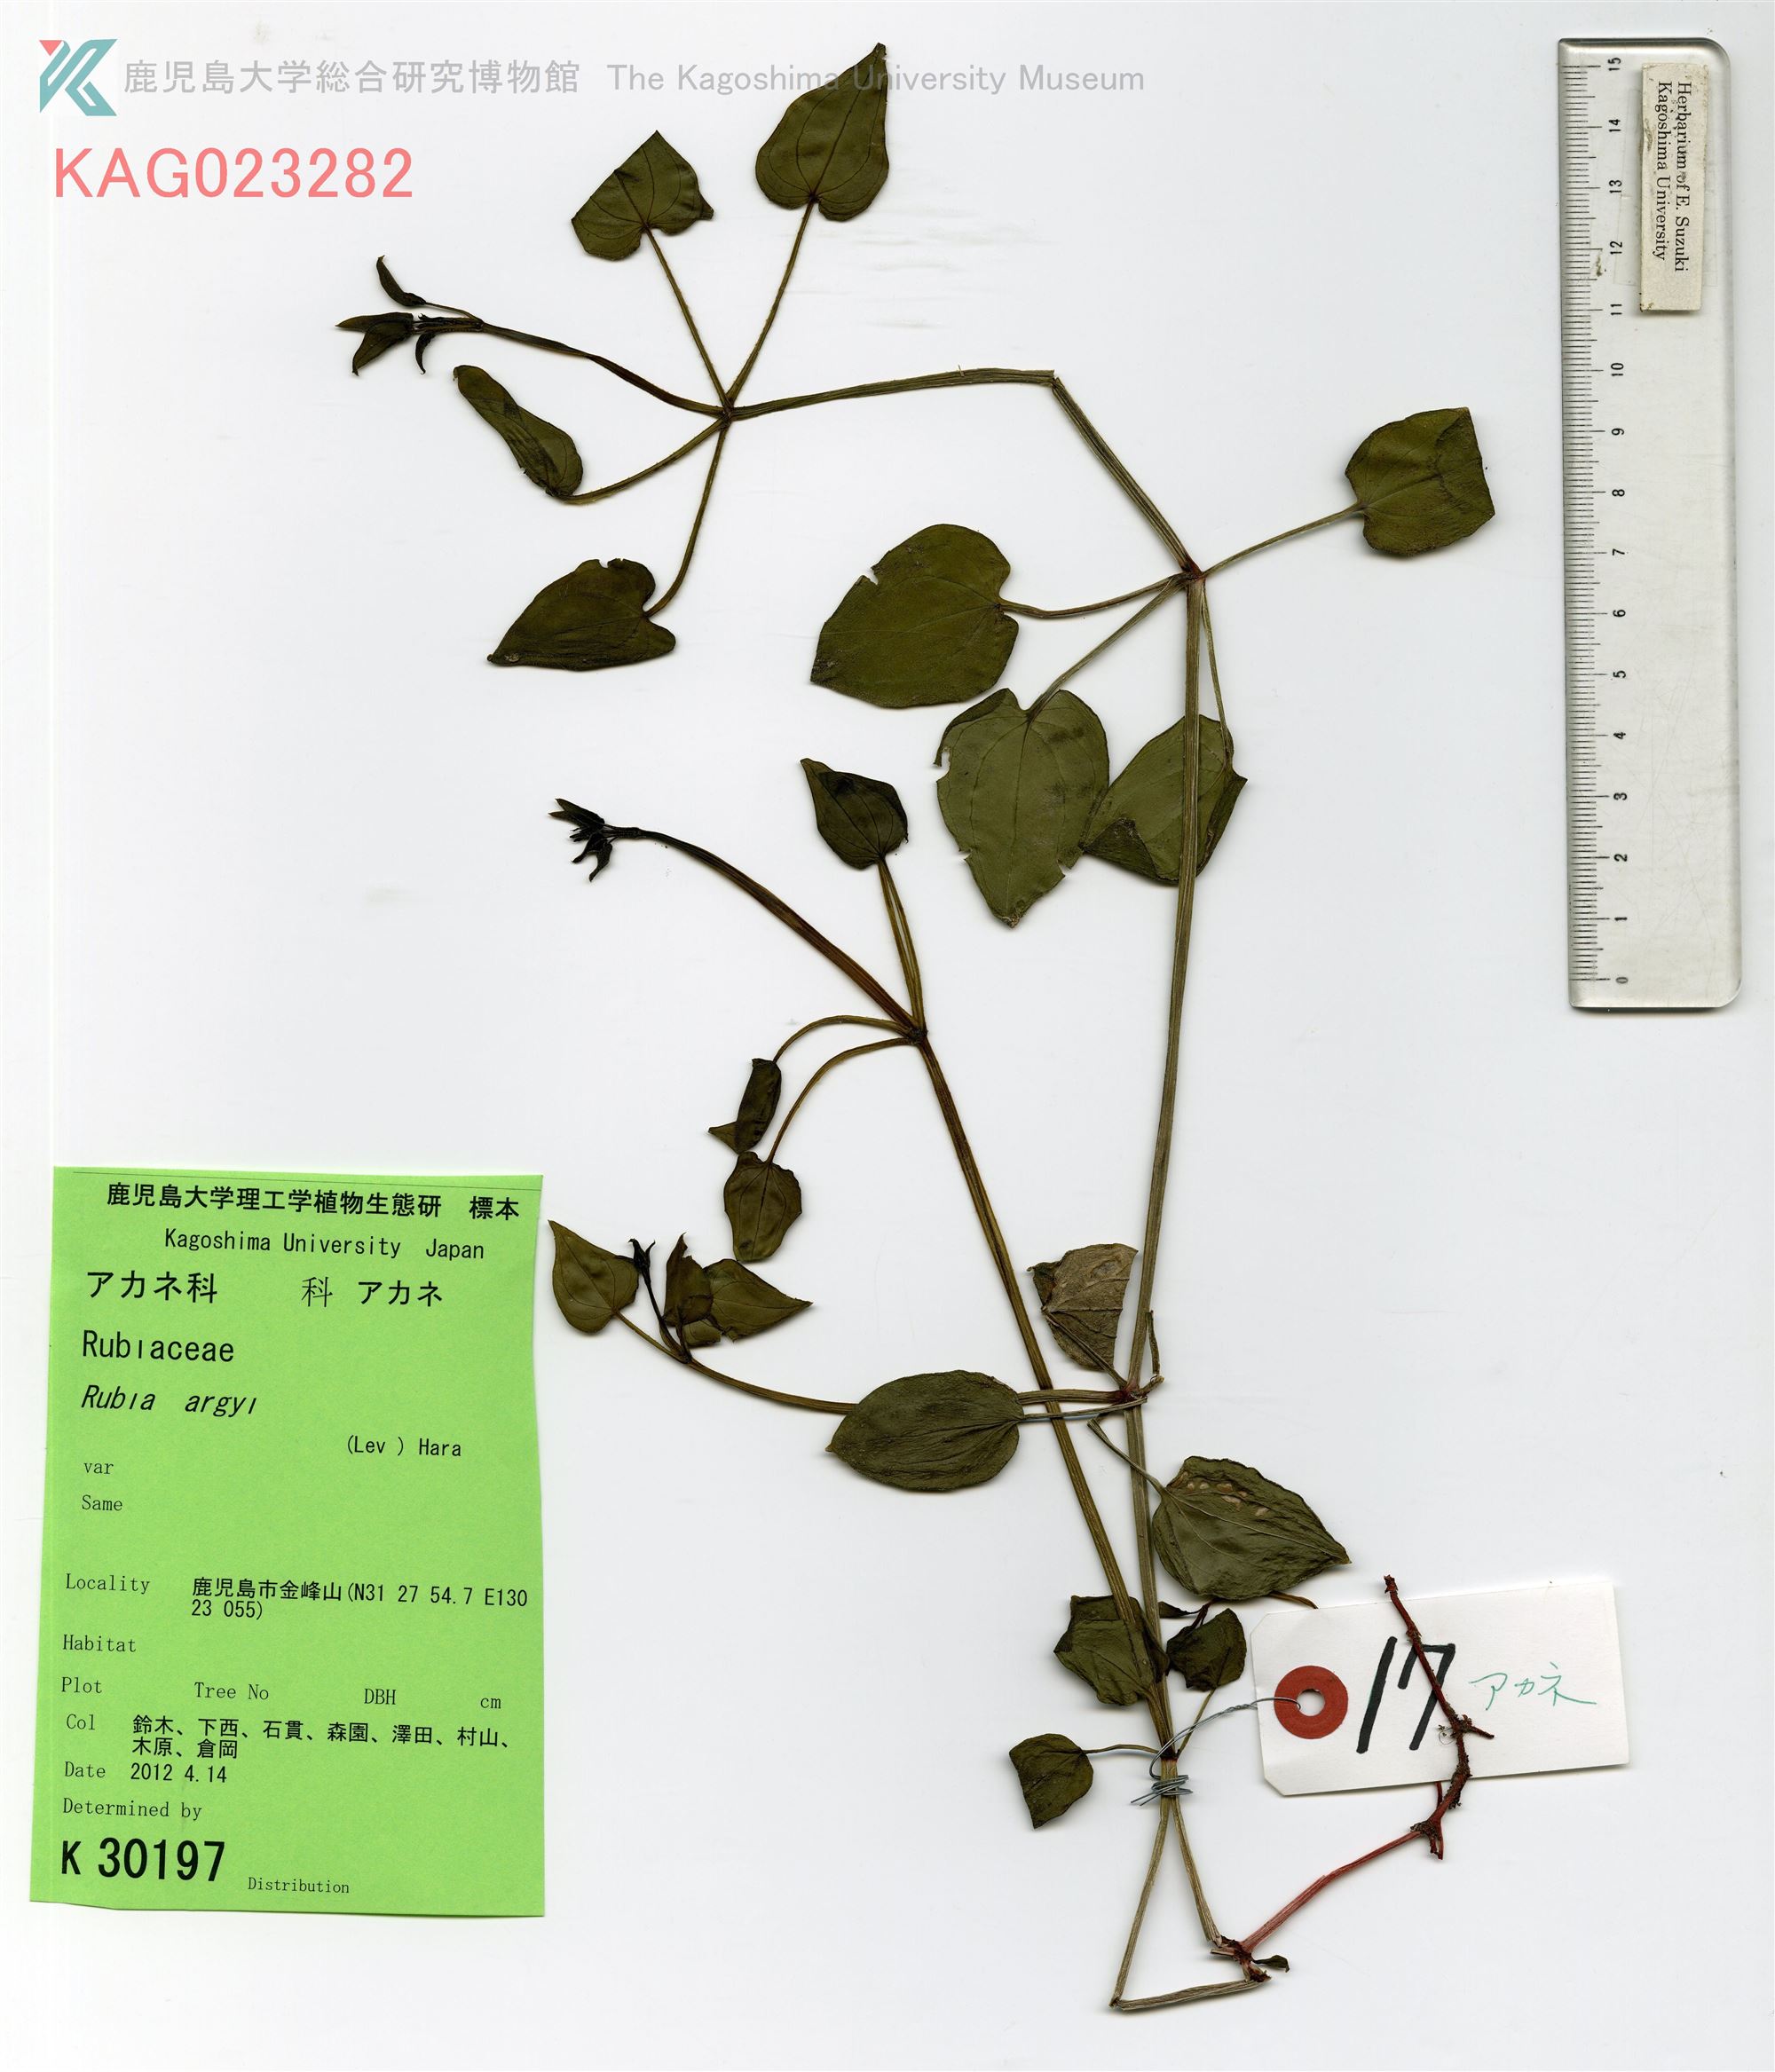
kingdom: Plantae
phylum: Tracheophyta
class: Magnoliopsida
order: Gentianales
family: Rubiaceae
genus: Rubia
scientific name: Rubia argyi
